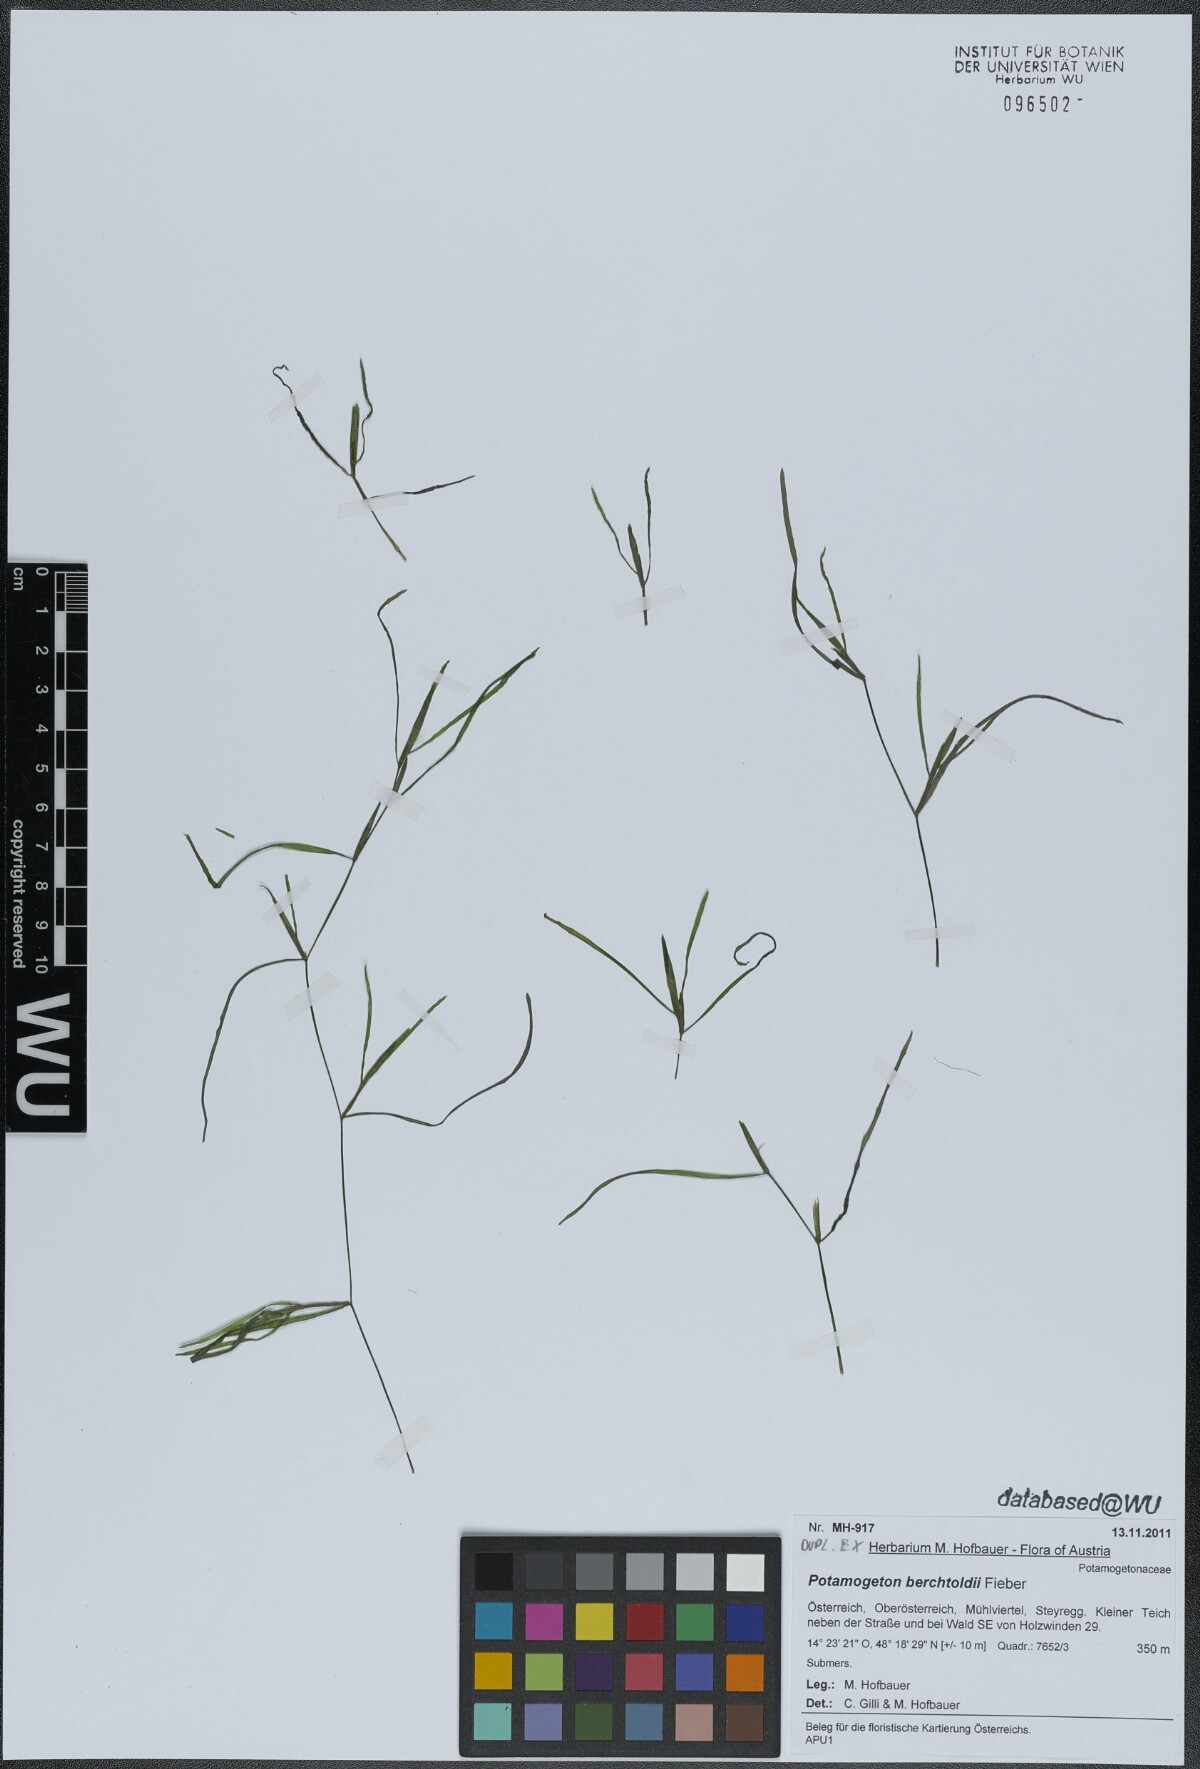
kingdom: Plantae
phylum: Tracheophyta
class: Liliopsida
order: Alismatales
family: Potamogetonaceae
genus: Potamogeton
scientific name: Potamogeton berchtoldii
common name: Small pondweed
